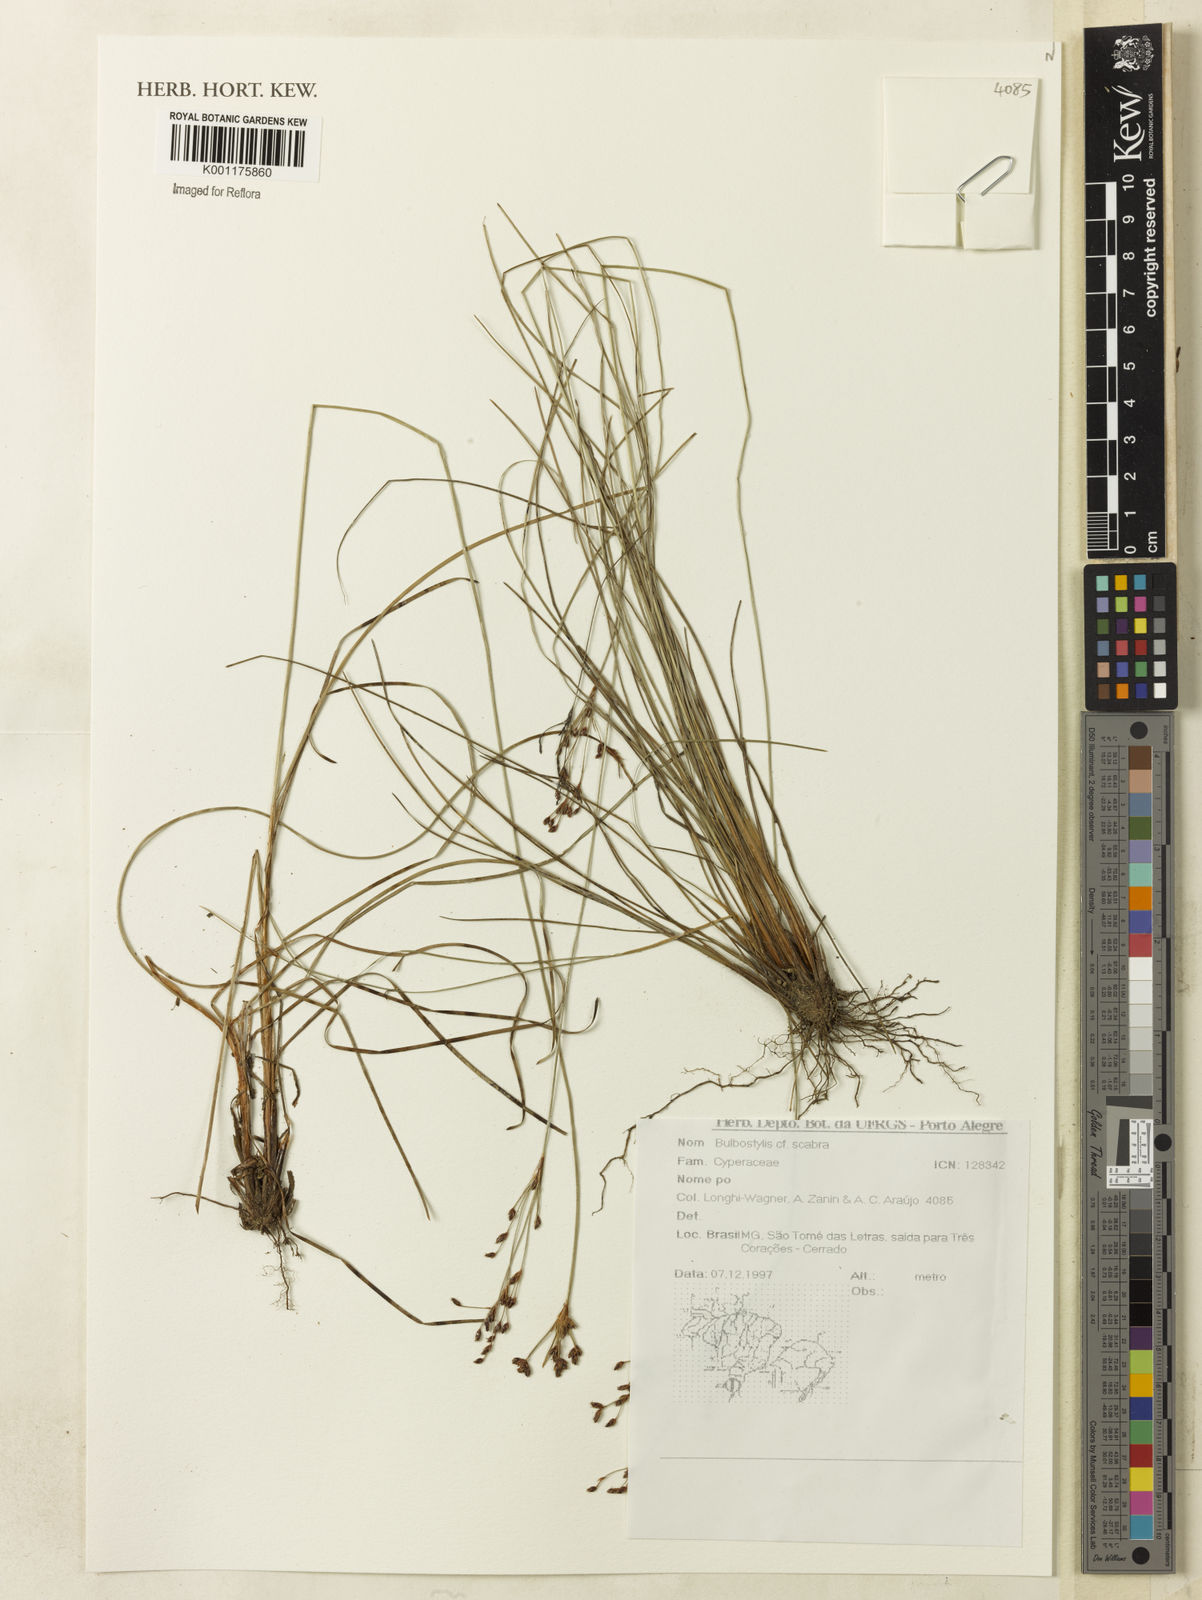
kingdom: Plantae
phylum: Tracheophyta
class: Liliopsida
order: Poales
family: Cyperaceae
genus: Bulbostylis
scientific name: Bulbostylis scabra
